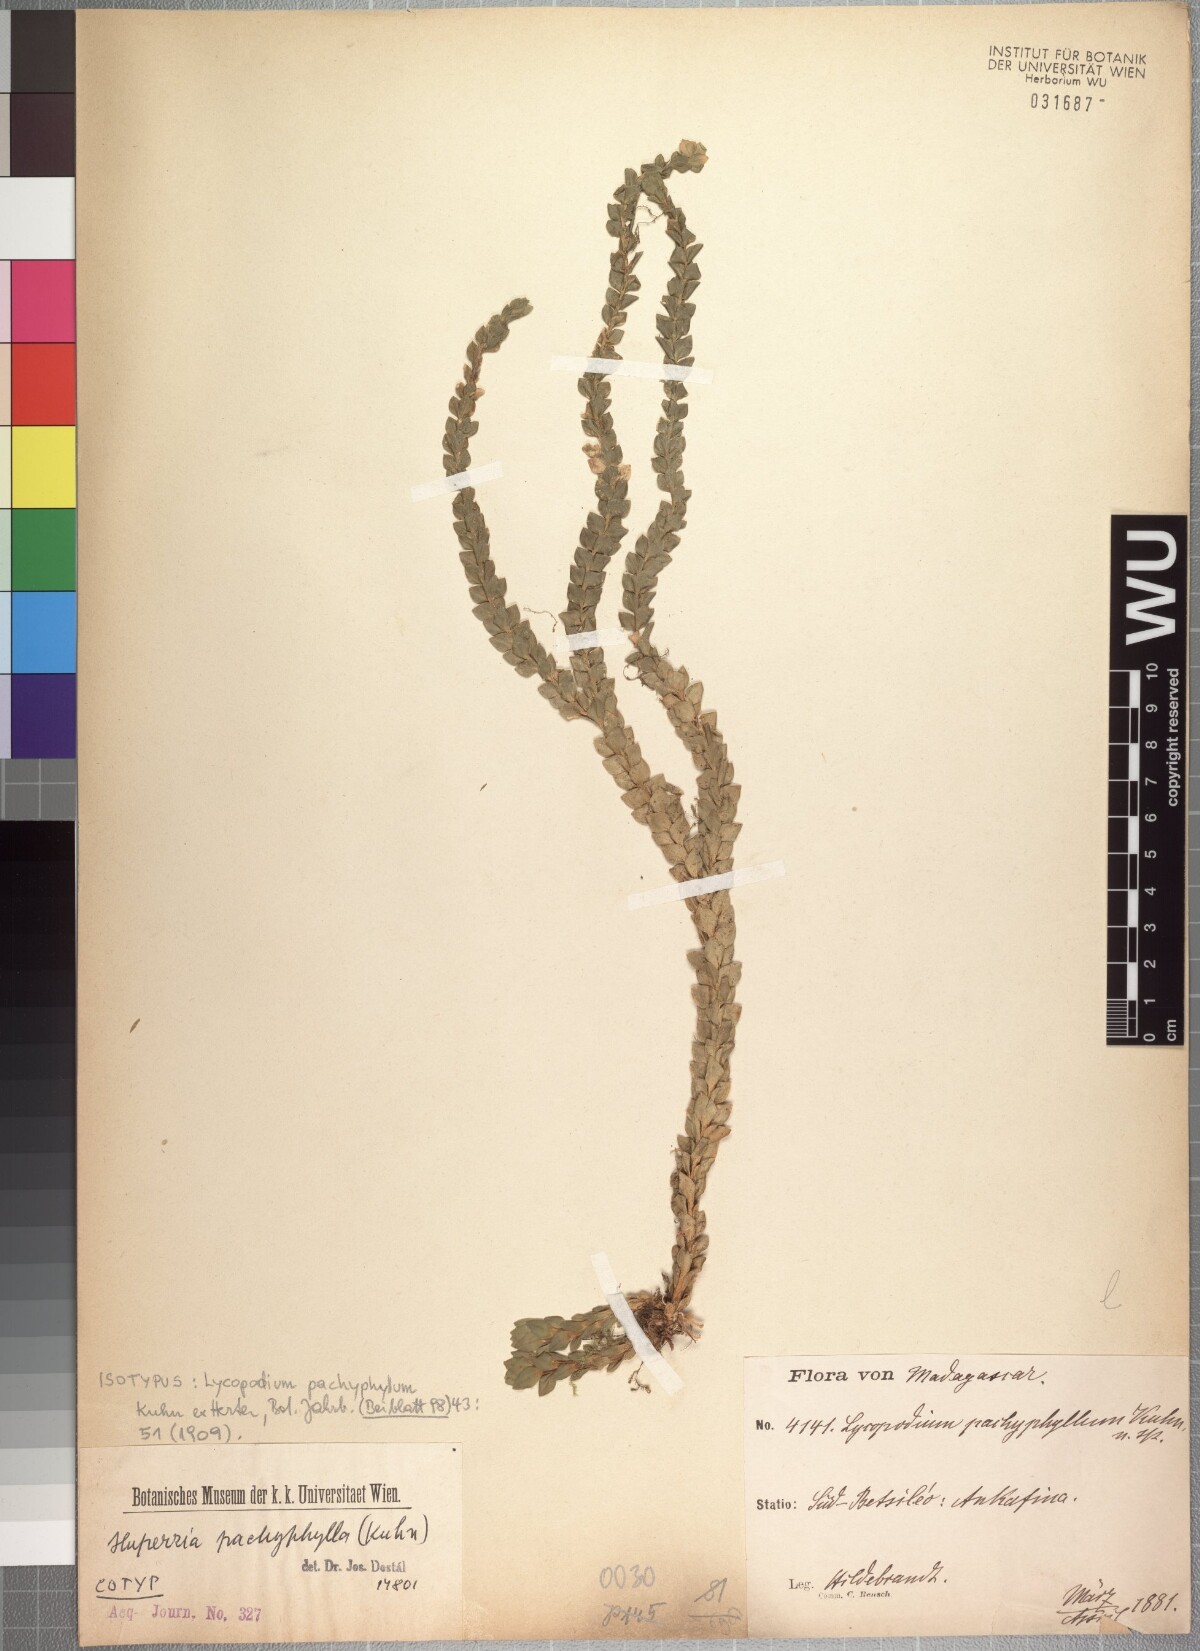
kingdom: Plantae
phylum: Tracheophyta
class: Lycopodiopsida
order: Lycopodiales
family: Lycopodiaceae
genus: Phlegmariurus
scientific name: Phlegmariurus pachyphyllus
